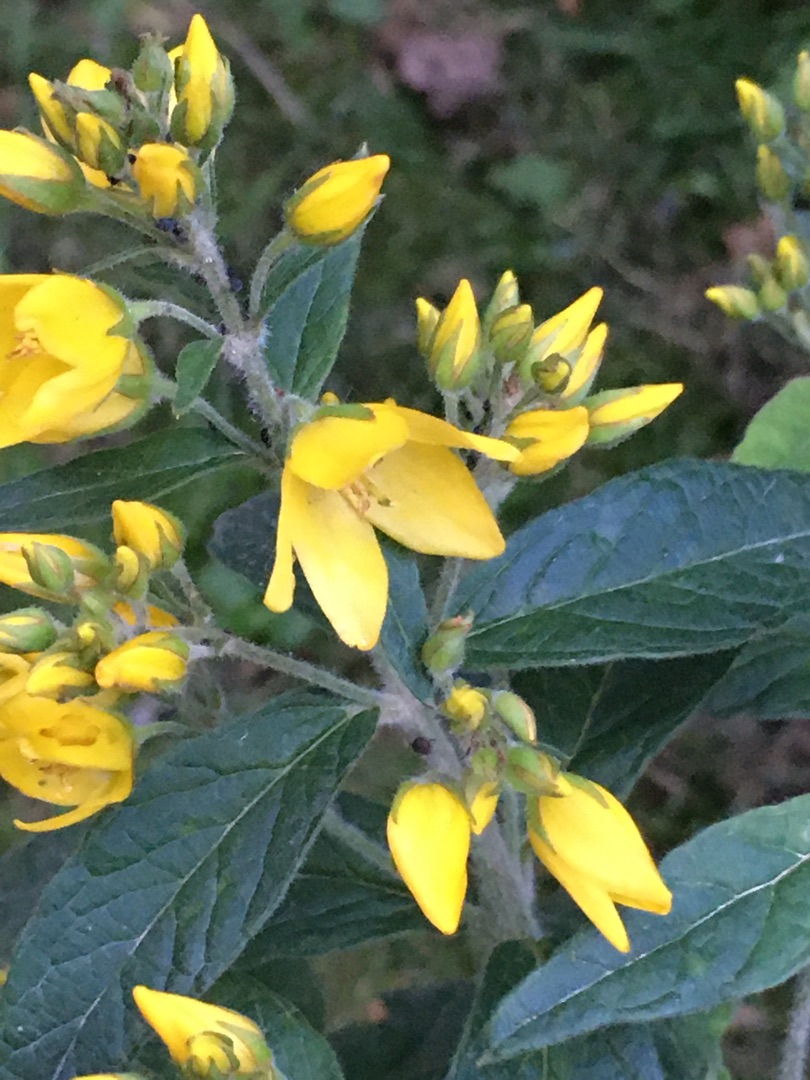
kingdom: Plantae
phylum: Tracheophyta
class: Magnoliopsida
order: Ericales
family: Primulaceae
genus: Lysimachia
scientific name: Lysimachia vulgaris
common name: Almindelig fredløs
